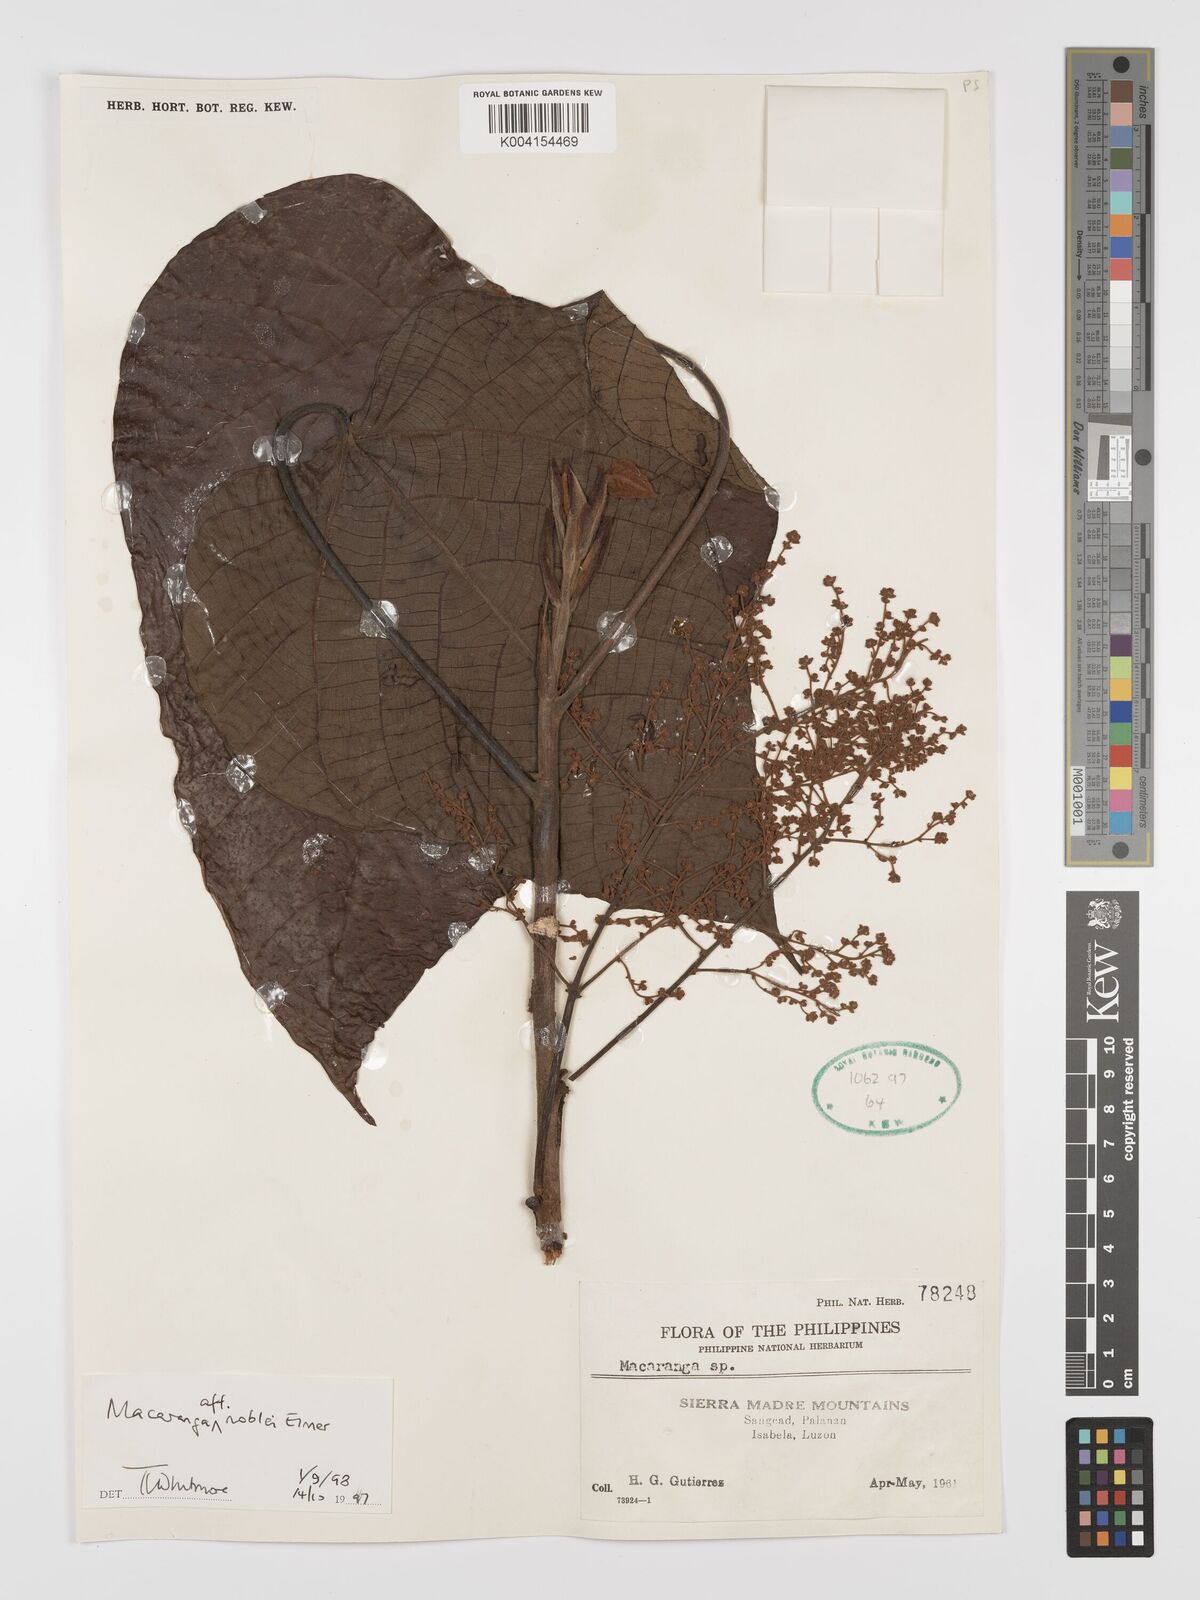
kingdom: Plantae
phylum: Tracheophyta
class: Magnoliopsida
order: Malpighiales
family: Euphorbiaceae
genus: Macaranga
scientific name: Macaranga noblei
